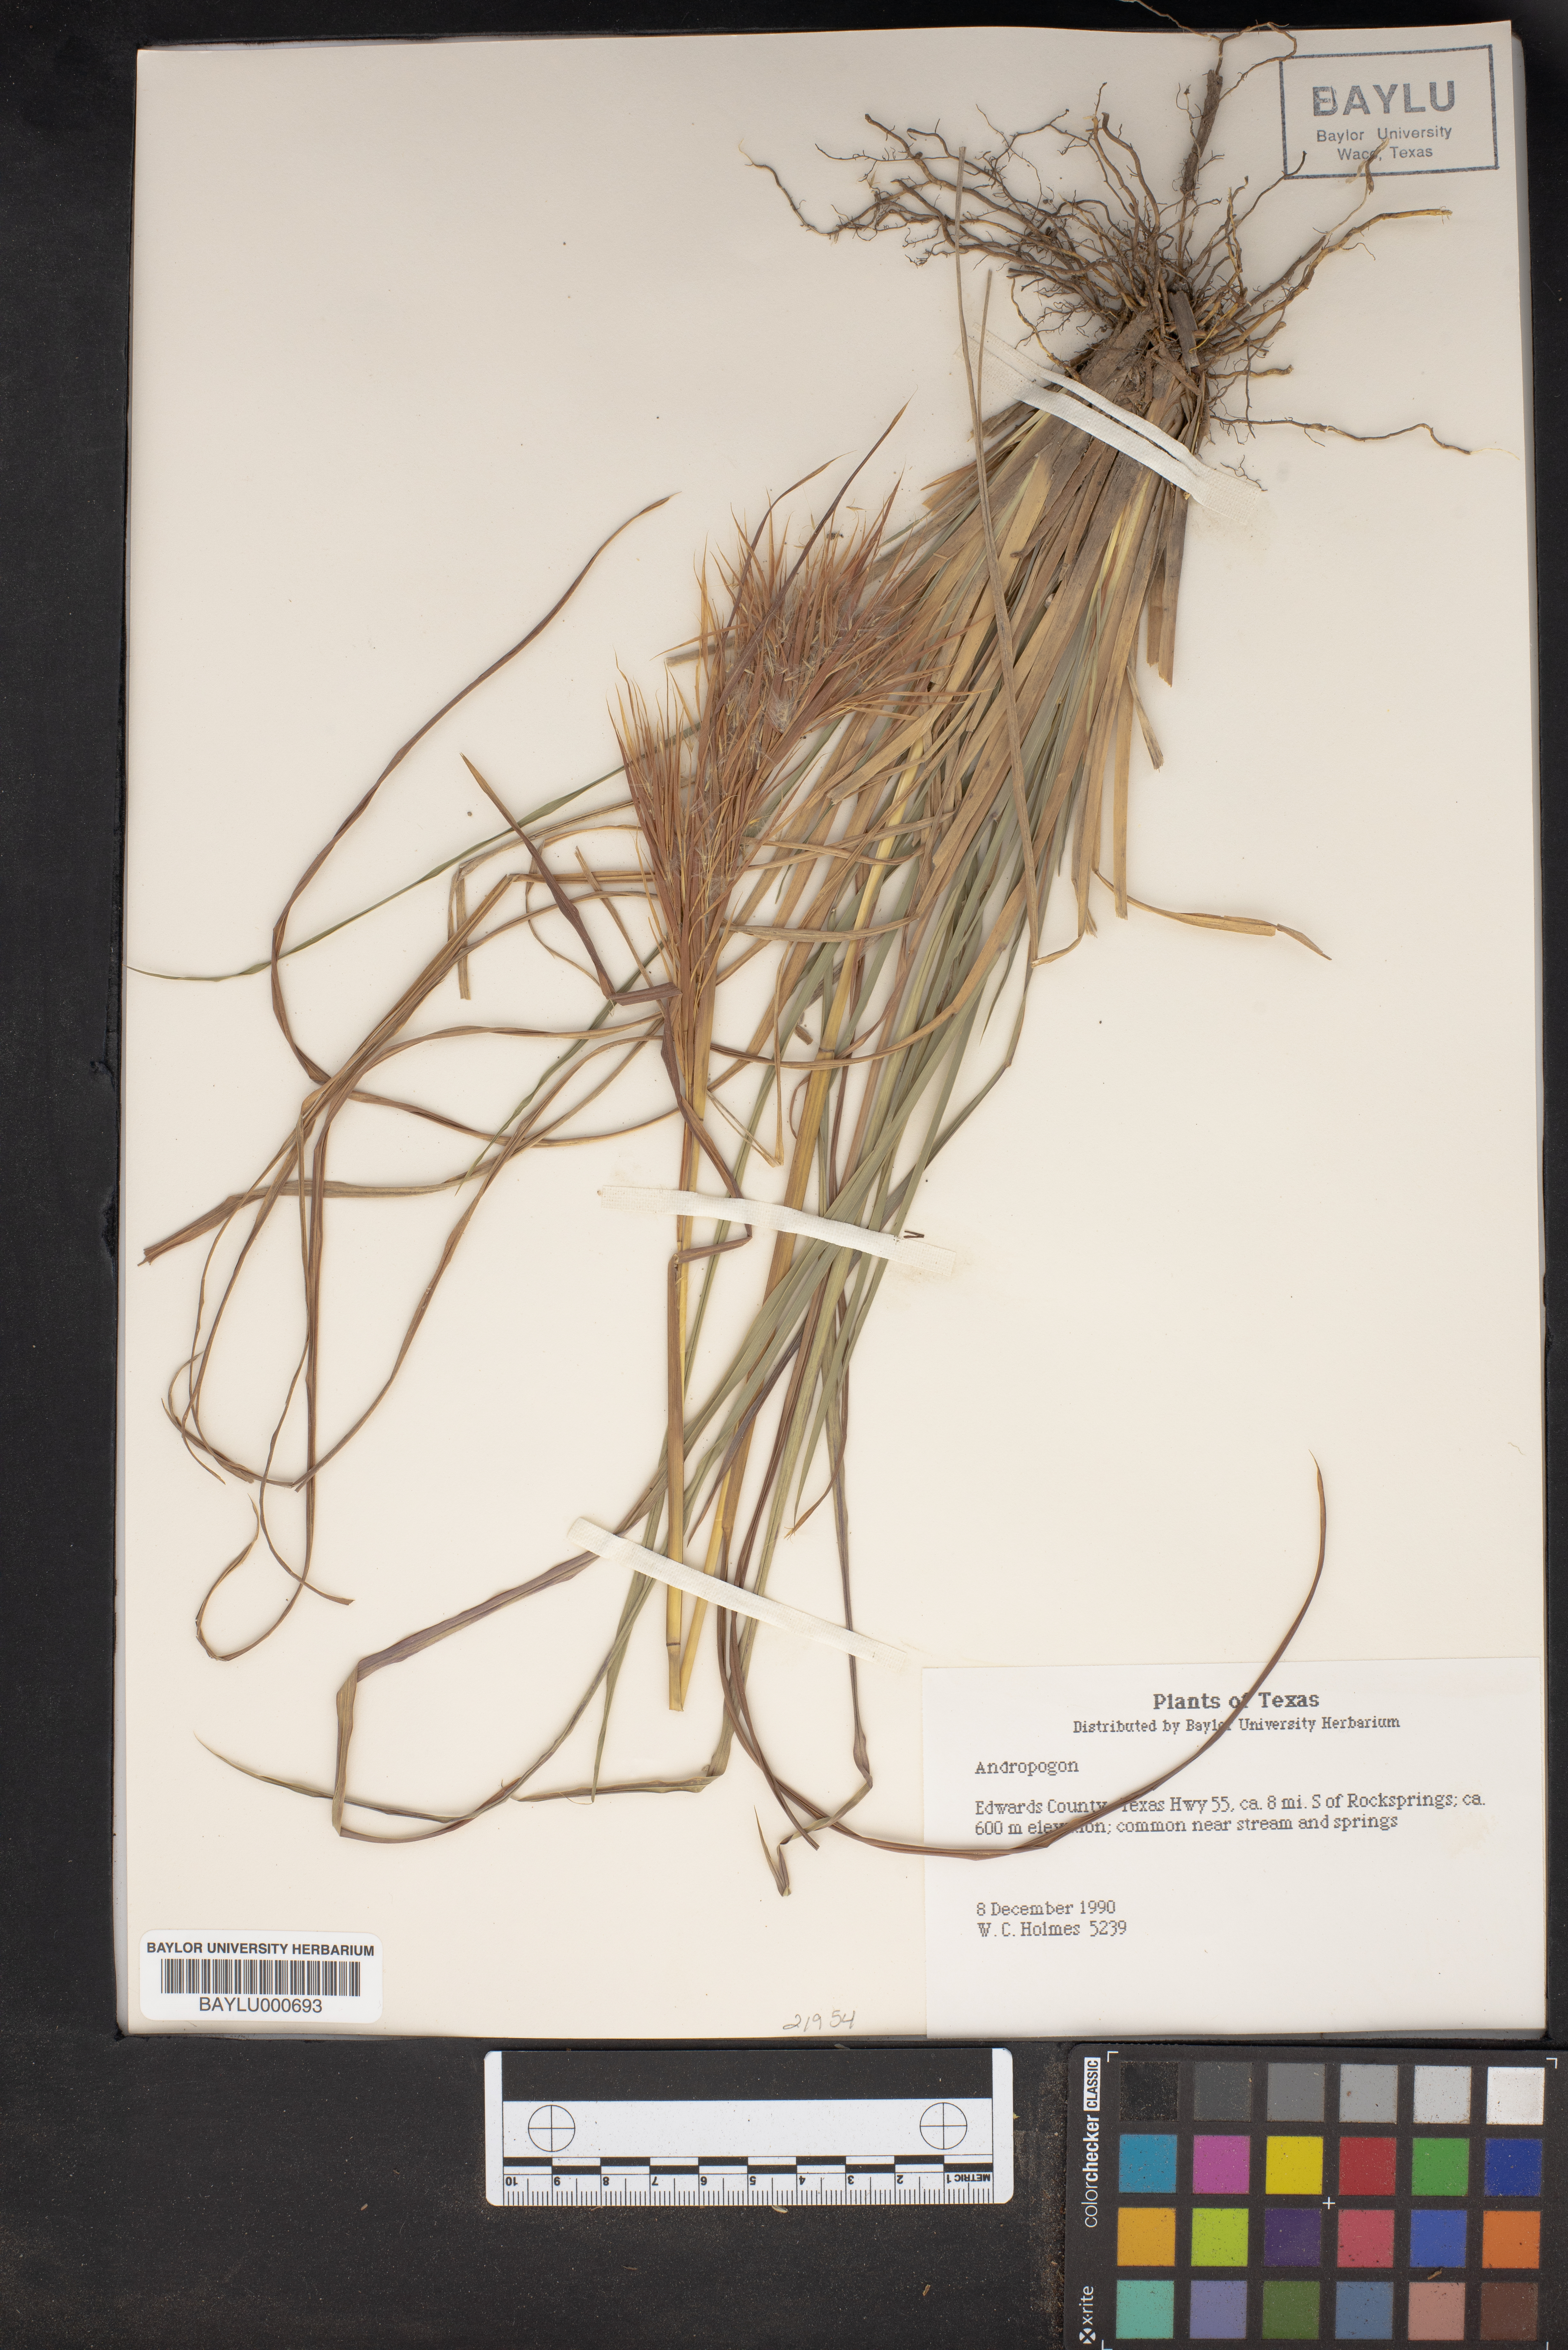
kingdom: Plantae
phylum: Tracheophyta
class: Liliopsida
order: Poales
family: Poaceae
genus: Andropogon
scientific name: Andropogon
